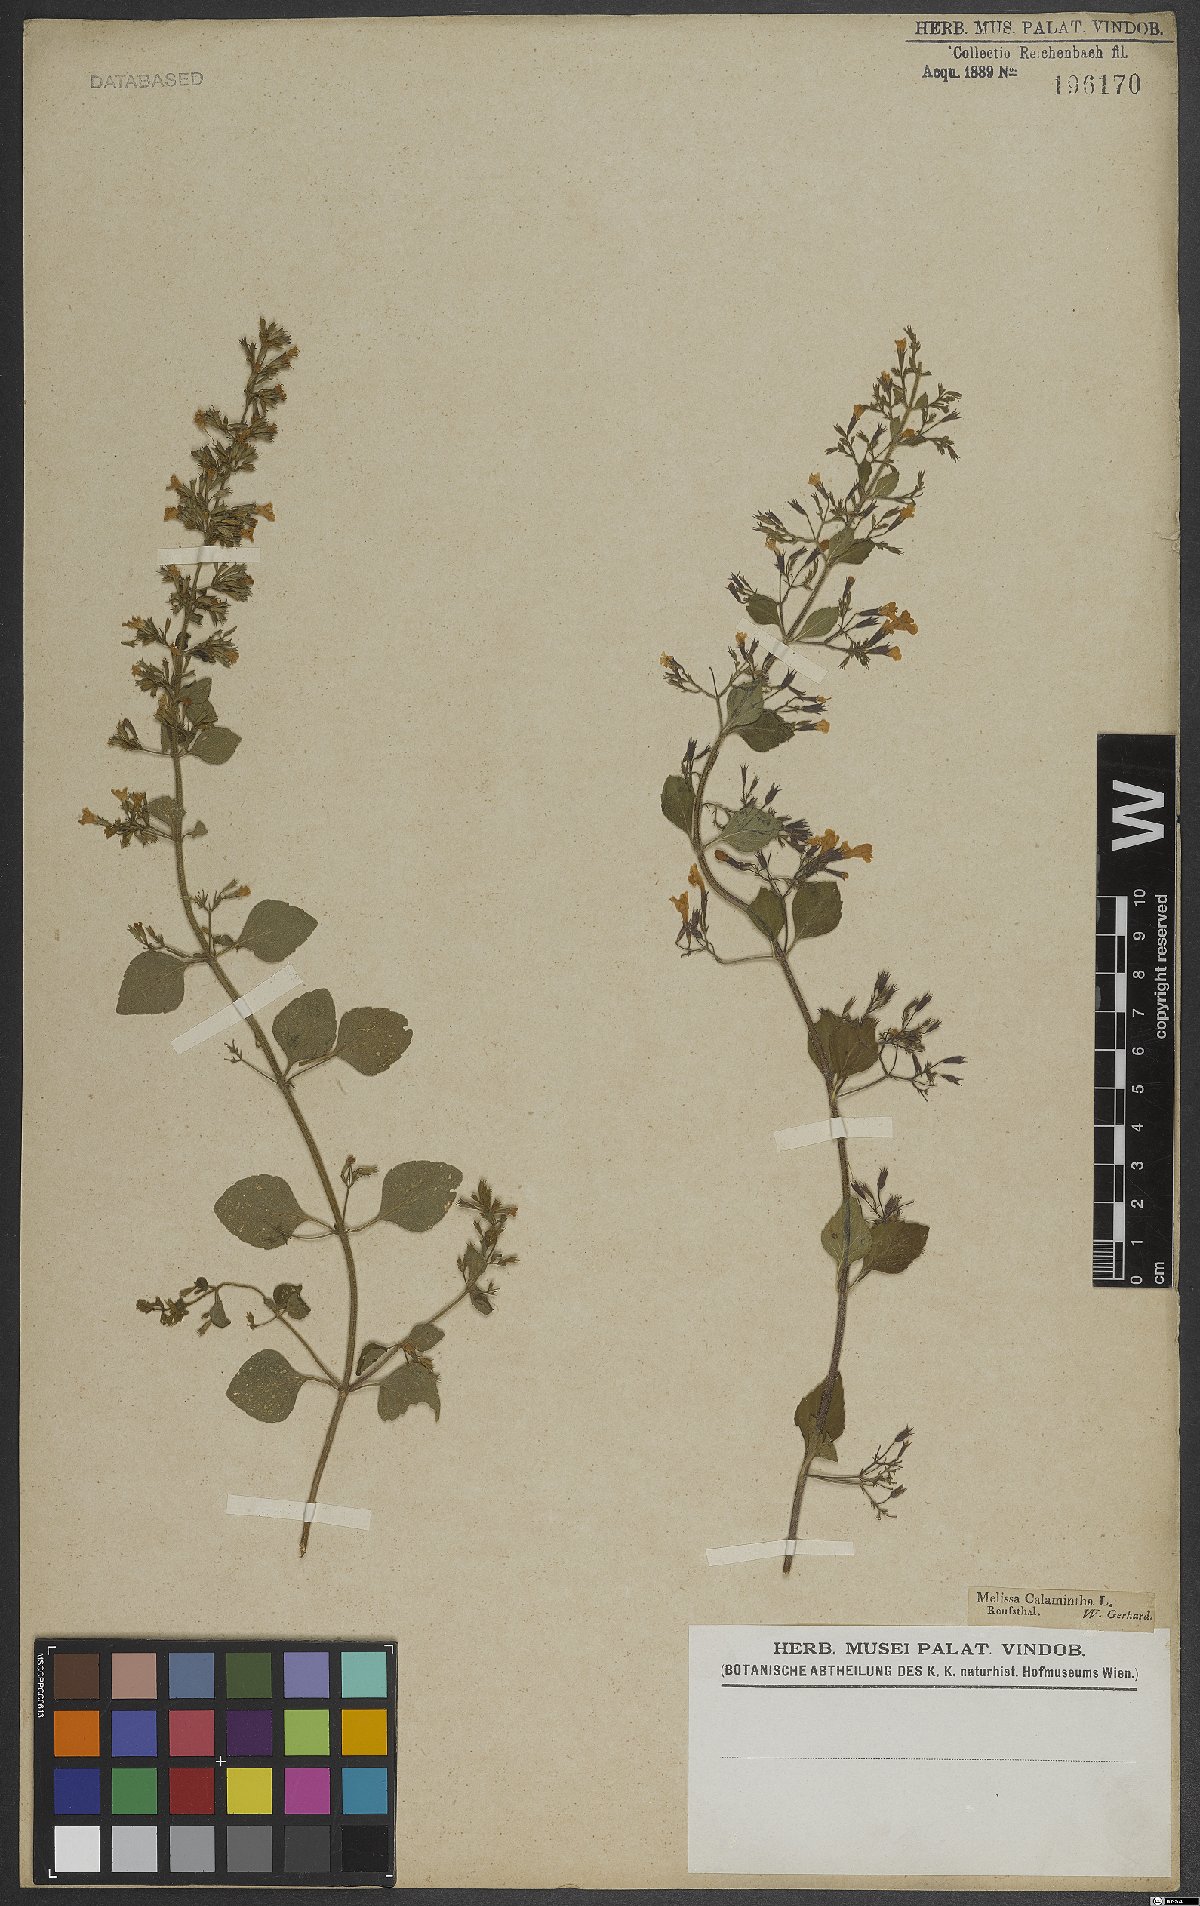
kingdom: Plantae
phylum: Tracheophyta
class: Magnoliopsida
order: Lamiales
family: Lamiaceae
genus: Clinopodium
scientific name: Clinopodium nepeta
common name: Lesser calamint
